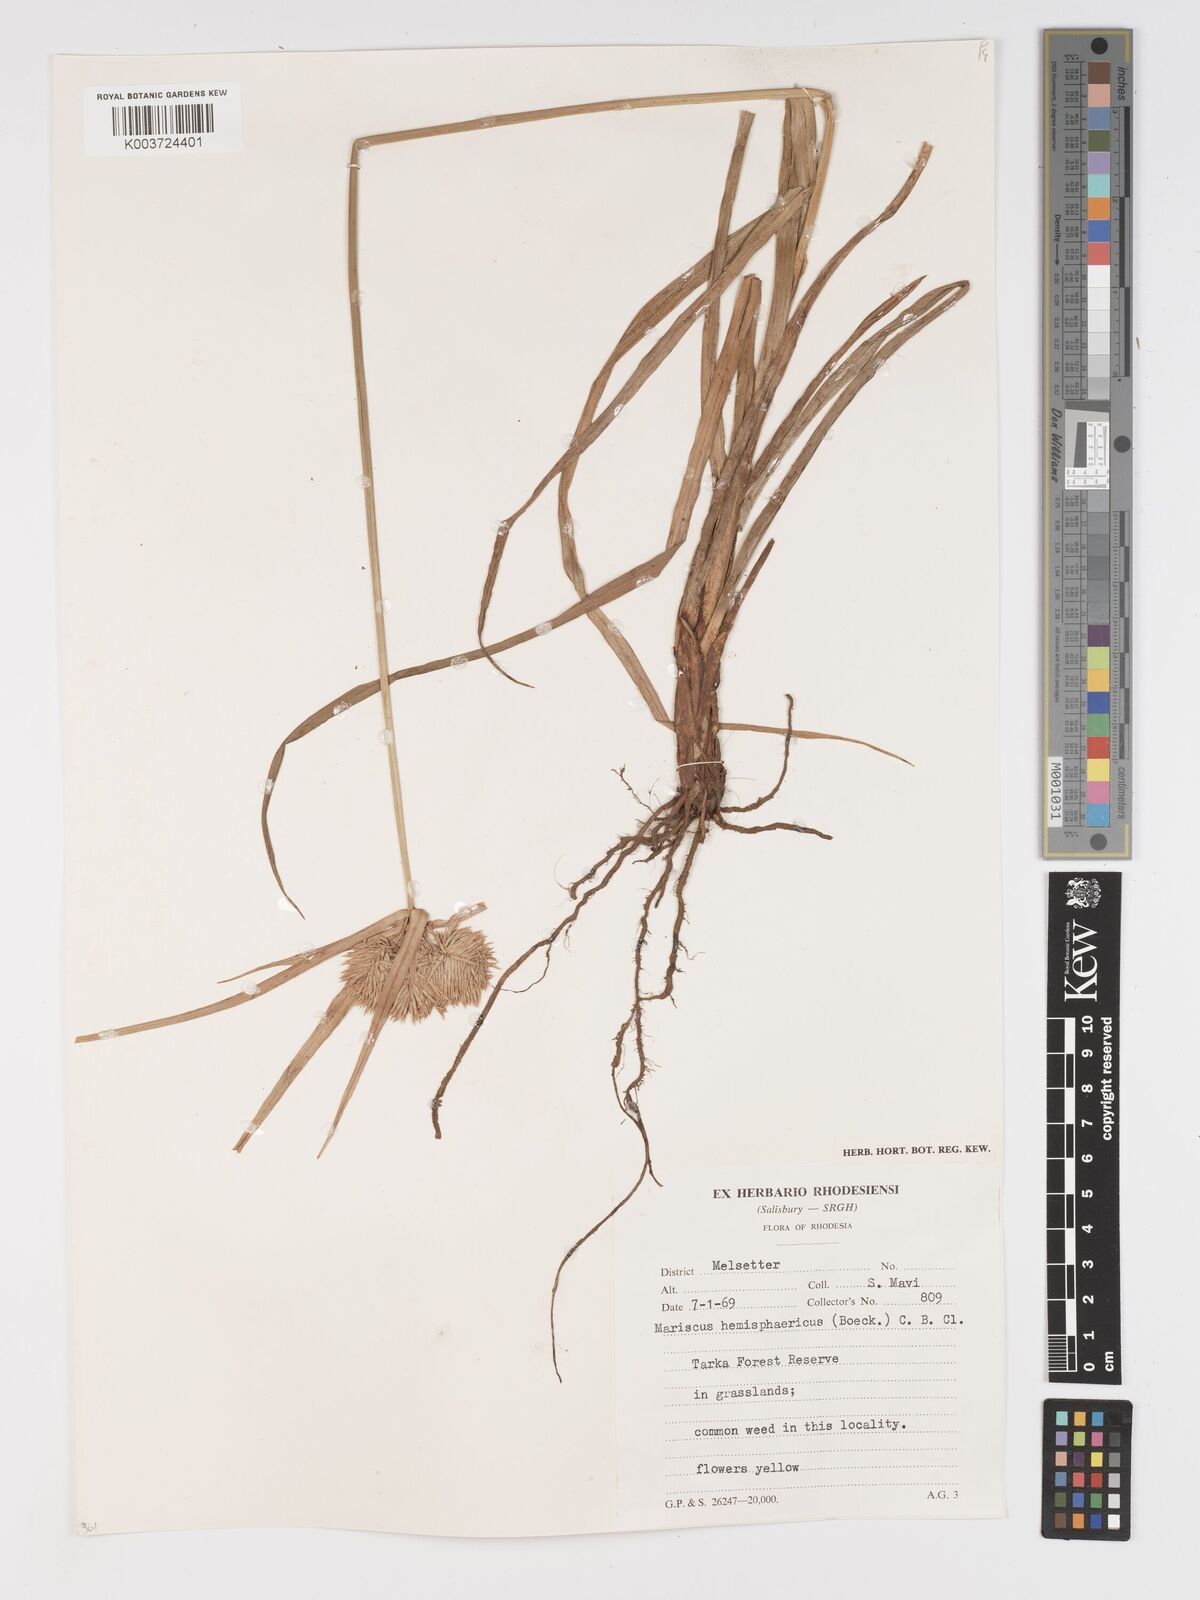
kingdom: Plantae
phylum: Tracheophyta
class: Liliopsida
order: Poales
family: Cyperaceae
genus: Cyperus
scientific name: Cyperus hemisphaericus
